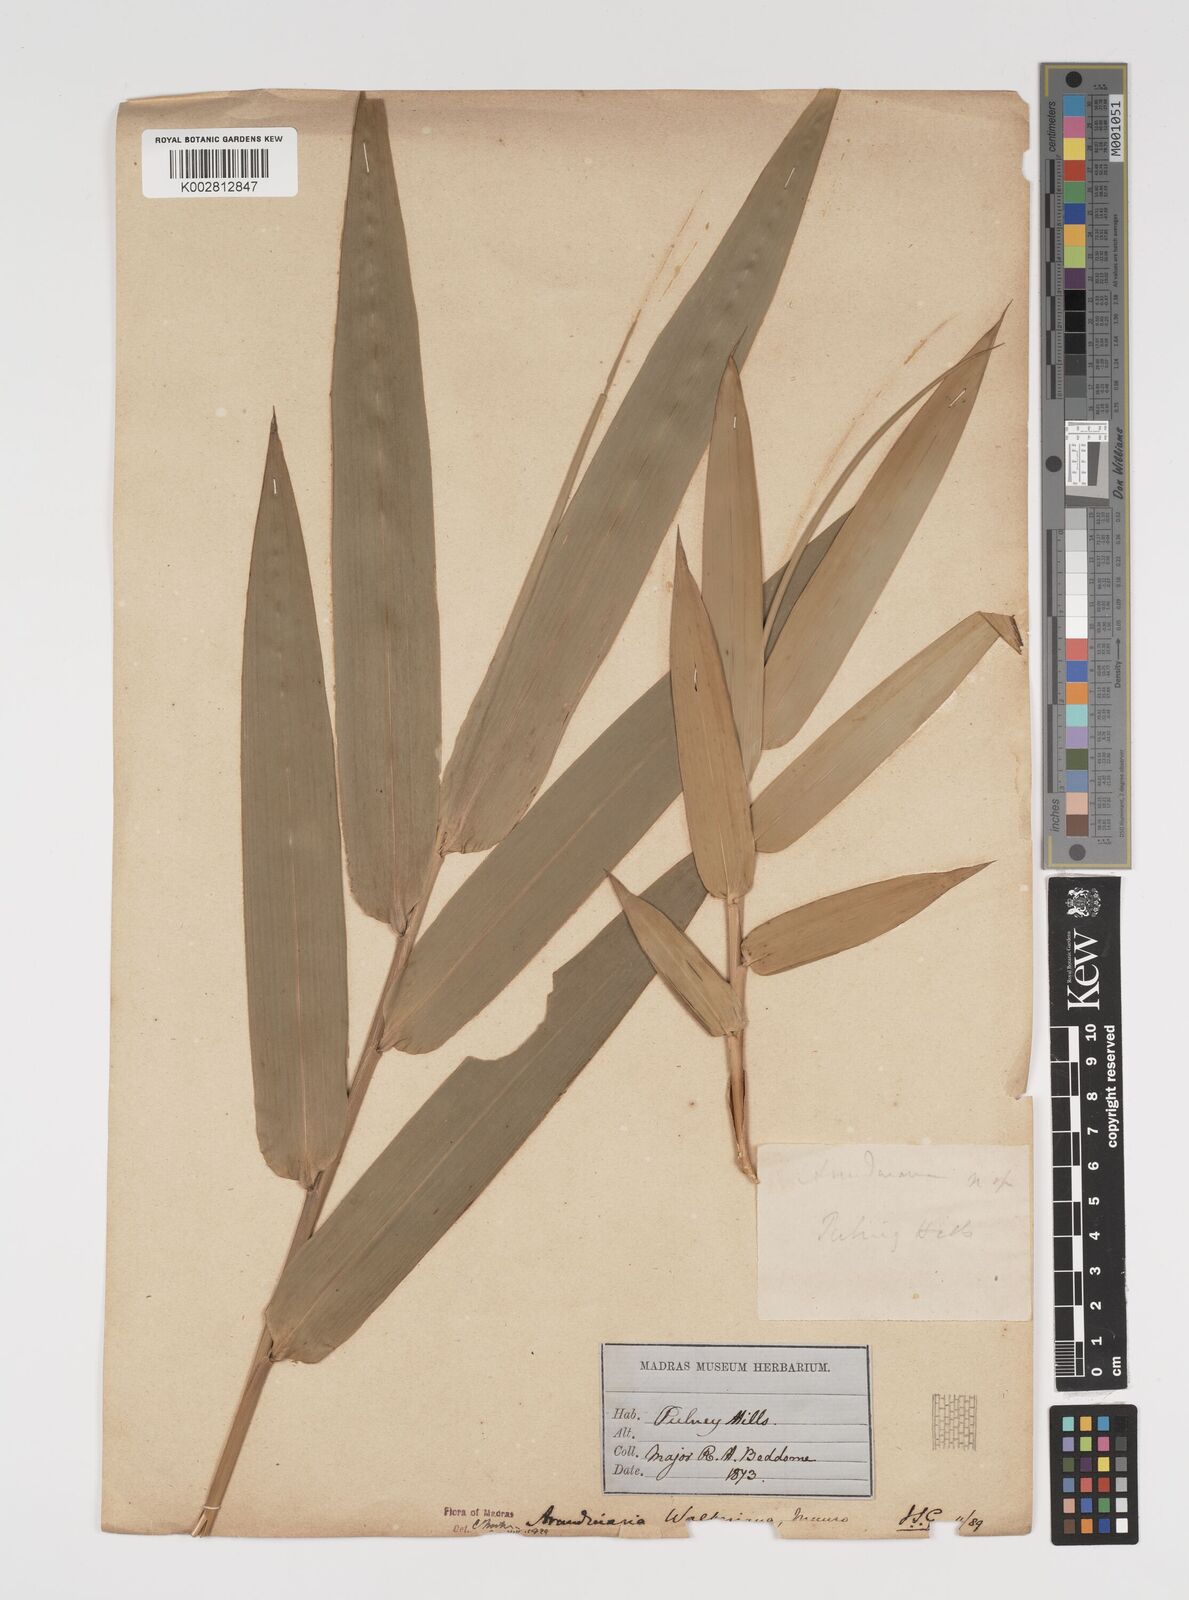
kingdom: Plantae
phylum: Tracheophyta
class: Liliopsida
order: Poales
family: Poaceae
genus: Kuruna
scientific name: Kuruna walkeriana
